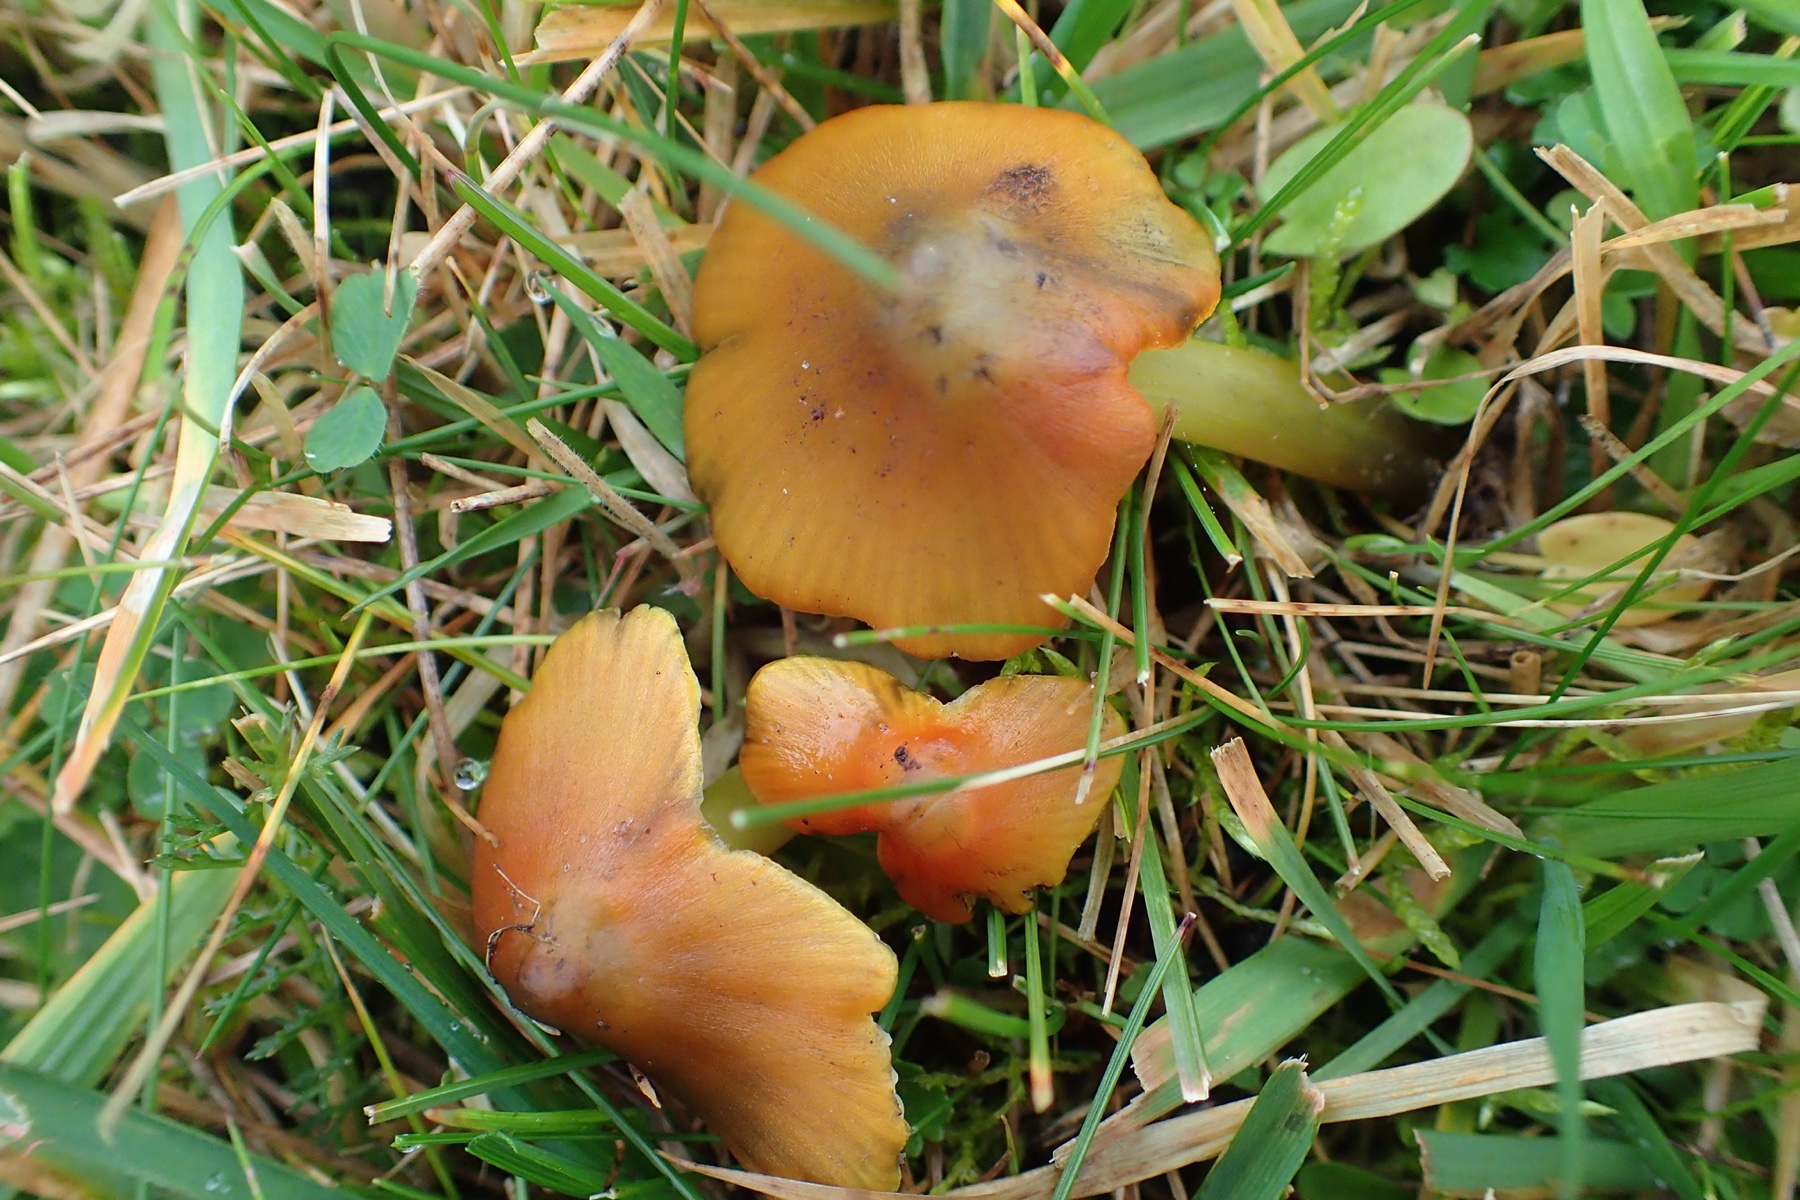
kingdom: Fungi
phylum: Basidiomycota
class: Agaricomycetes
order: Agaricales
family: Hygrophoraceae
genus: Hygrocybe
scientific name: Hygrocybe conica
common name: kegle-vokshat
